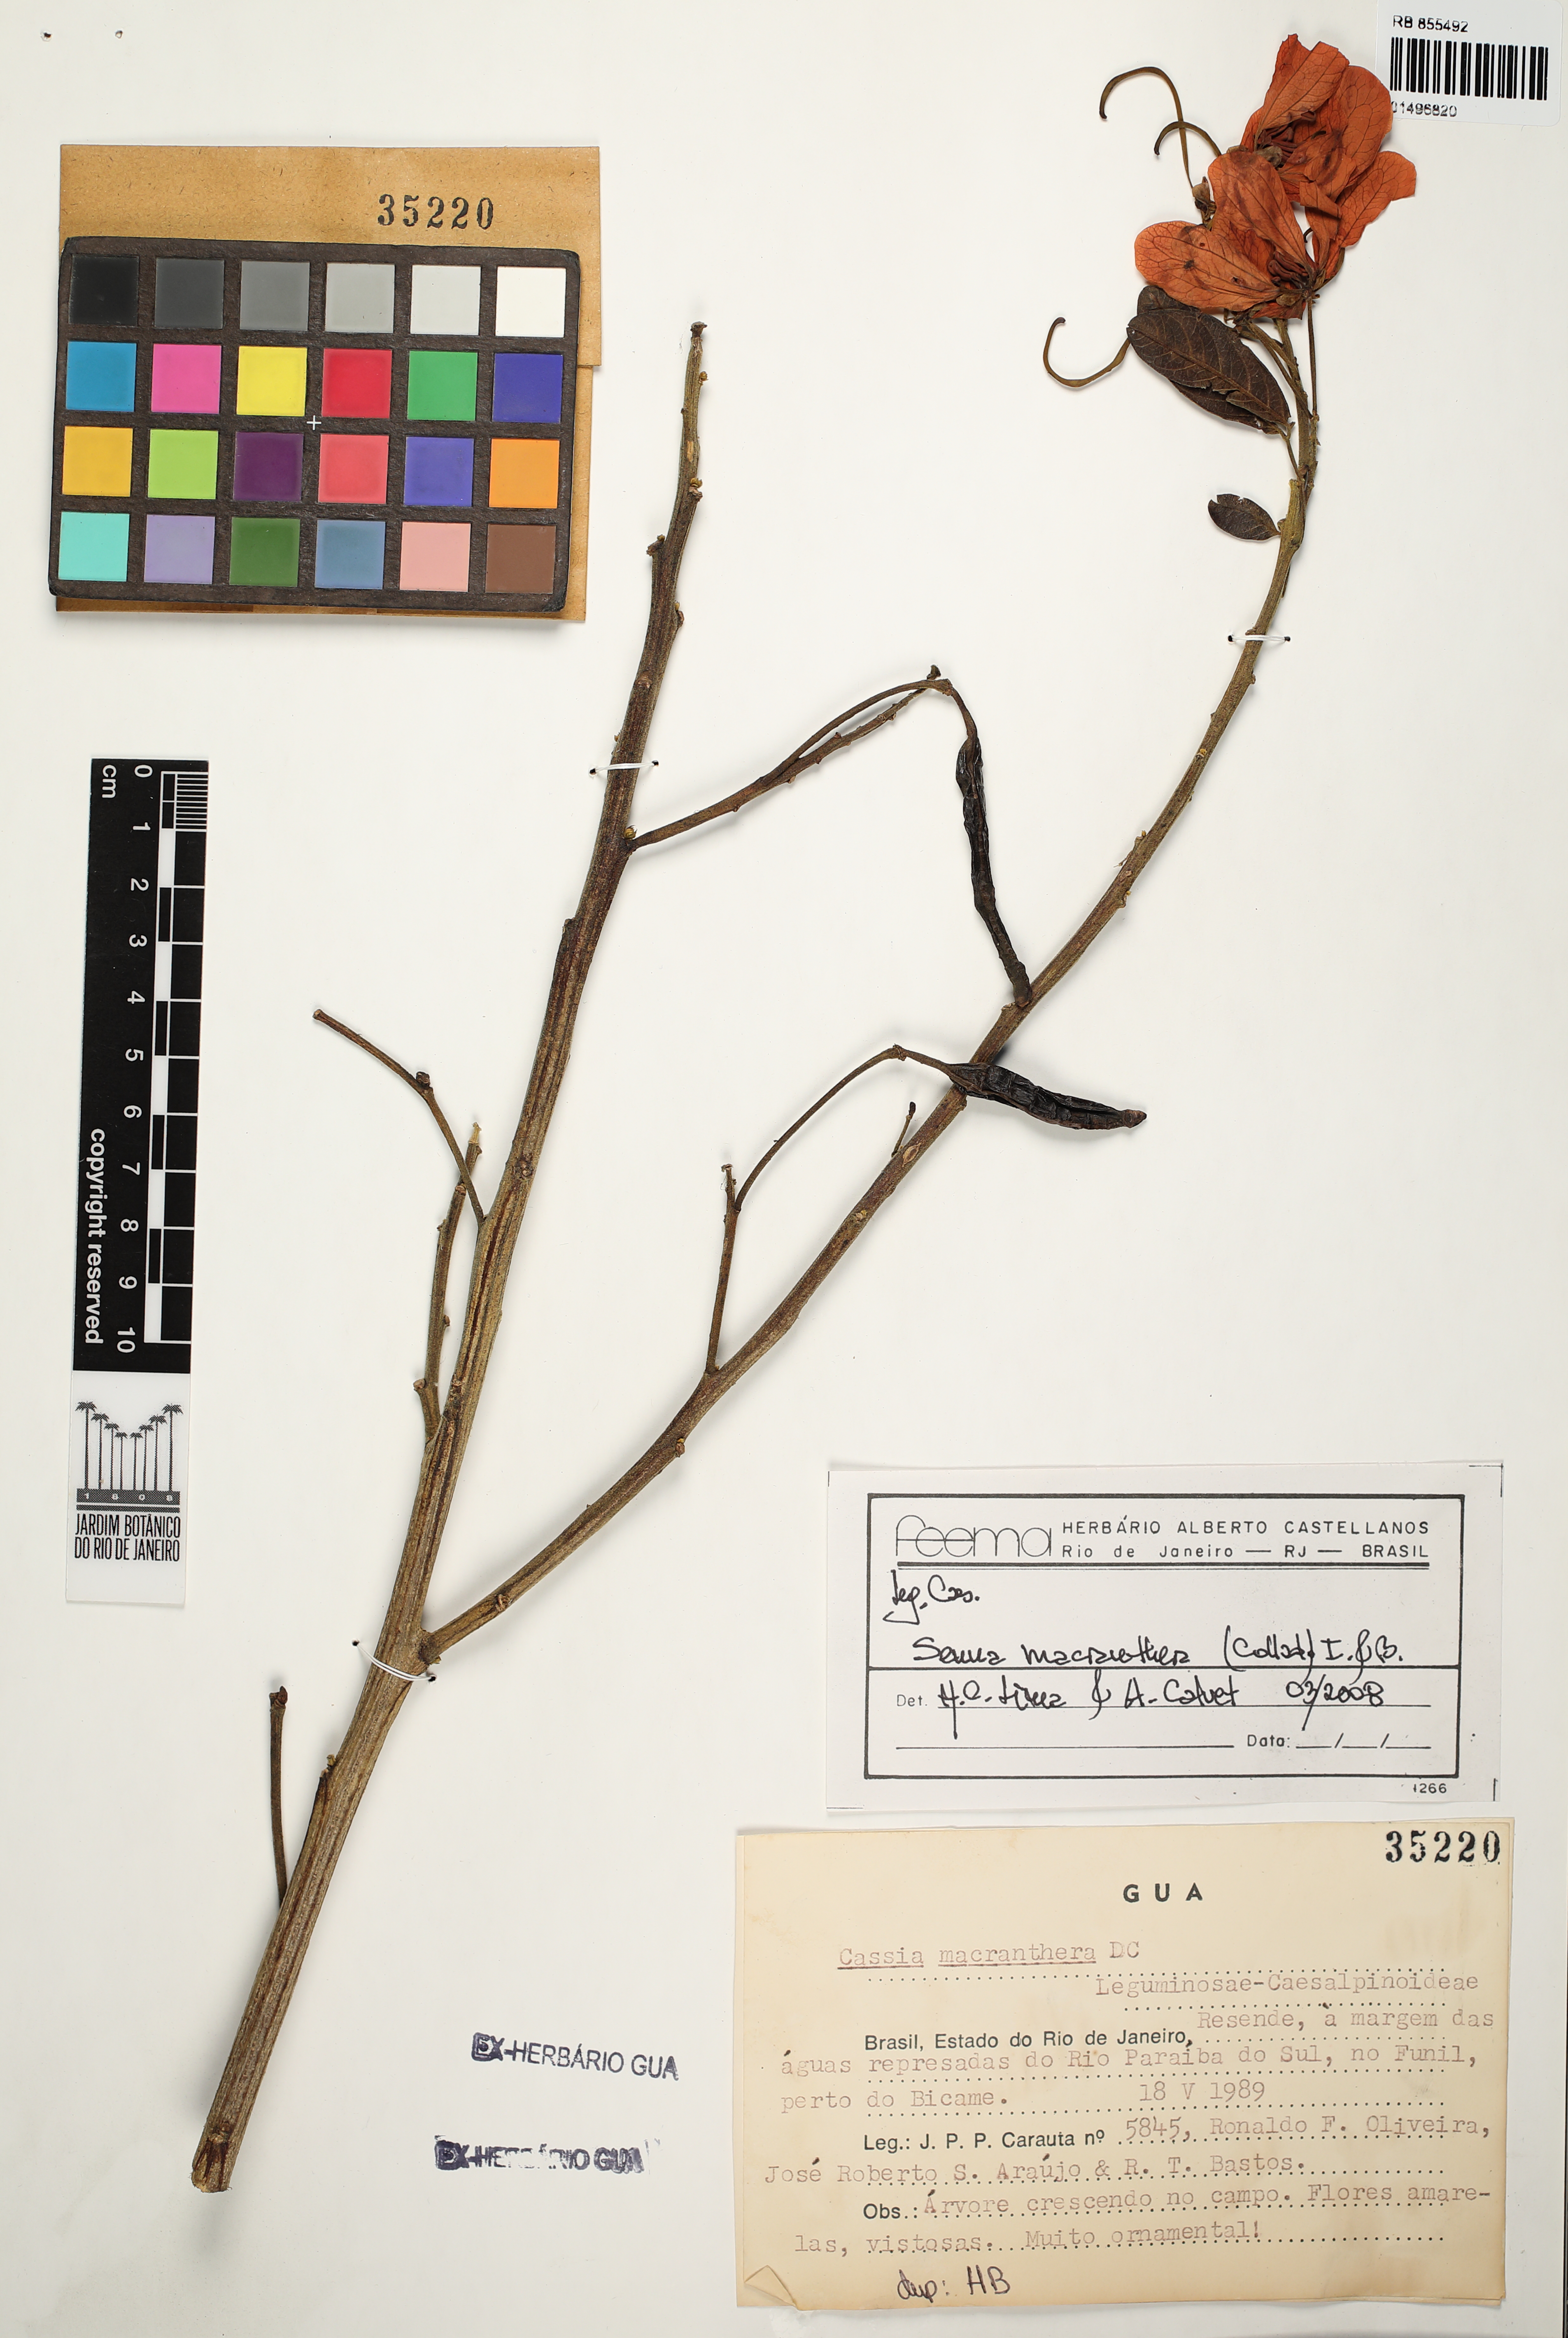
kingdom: Plantae
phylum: Tracheophyta
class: Magnoliopsida
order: Fabales
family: Fabaceae
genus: Senna
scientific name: Senna macranthera
